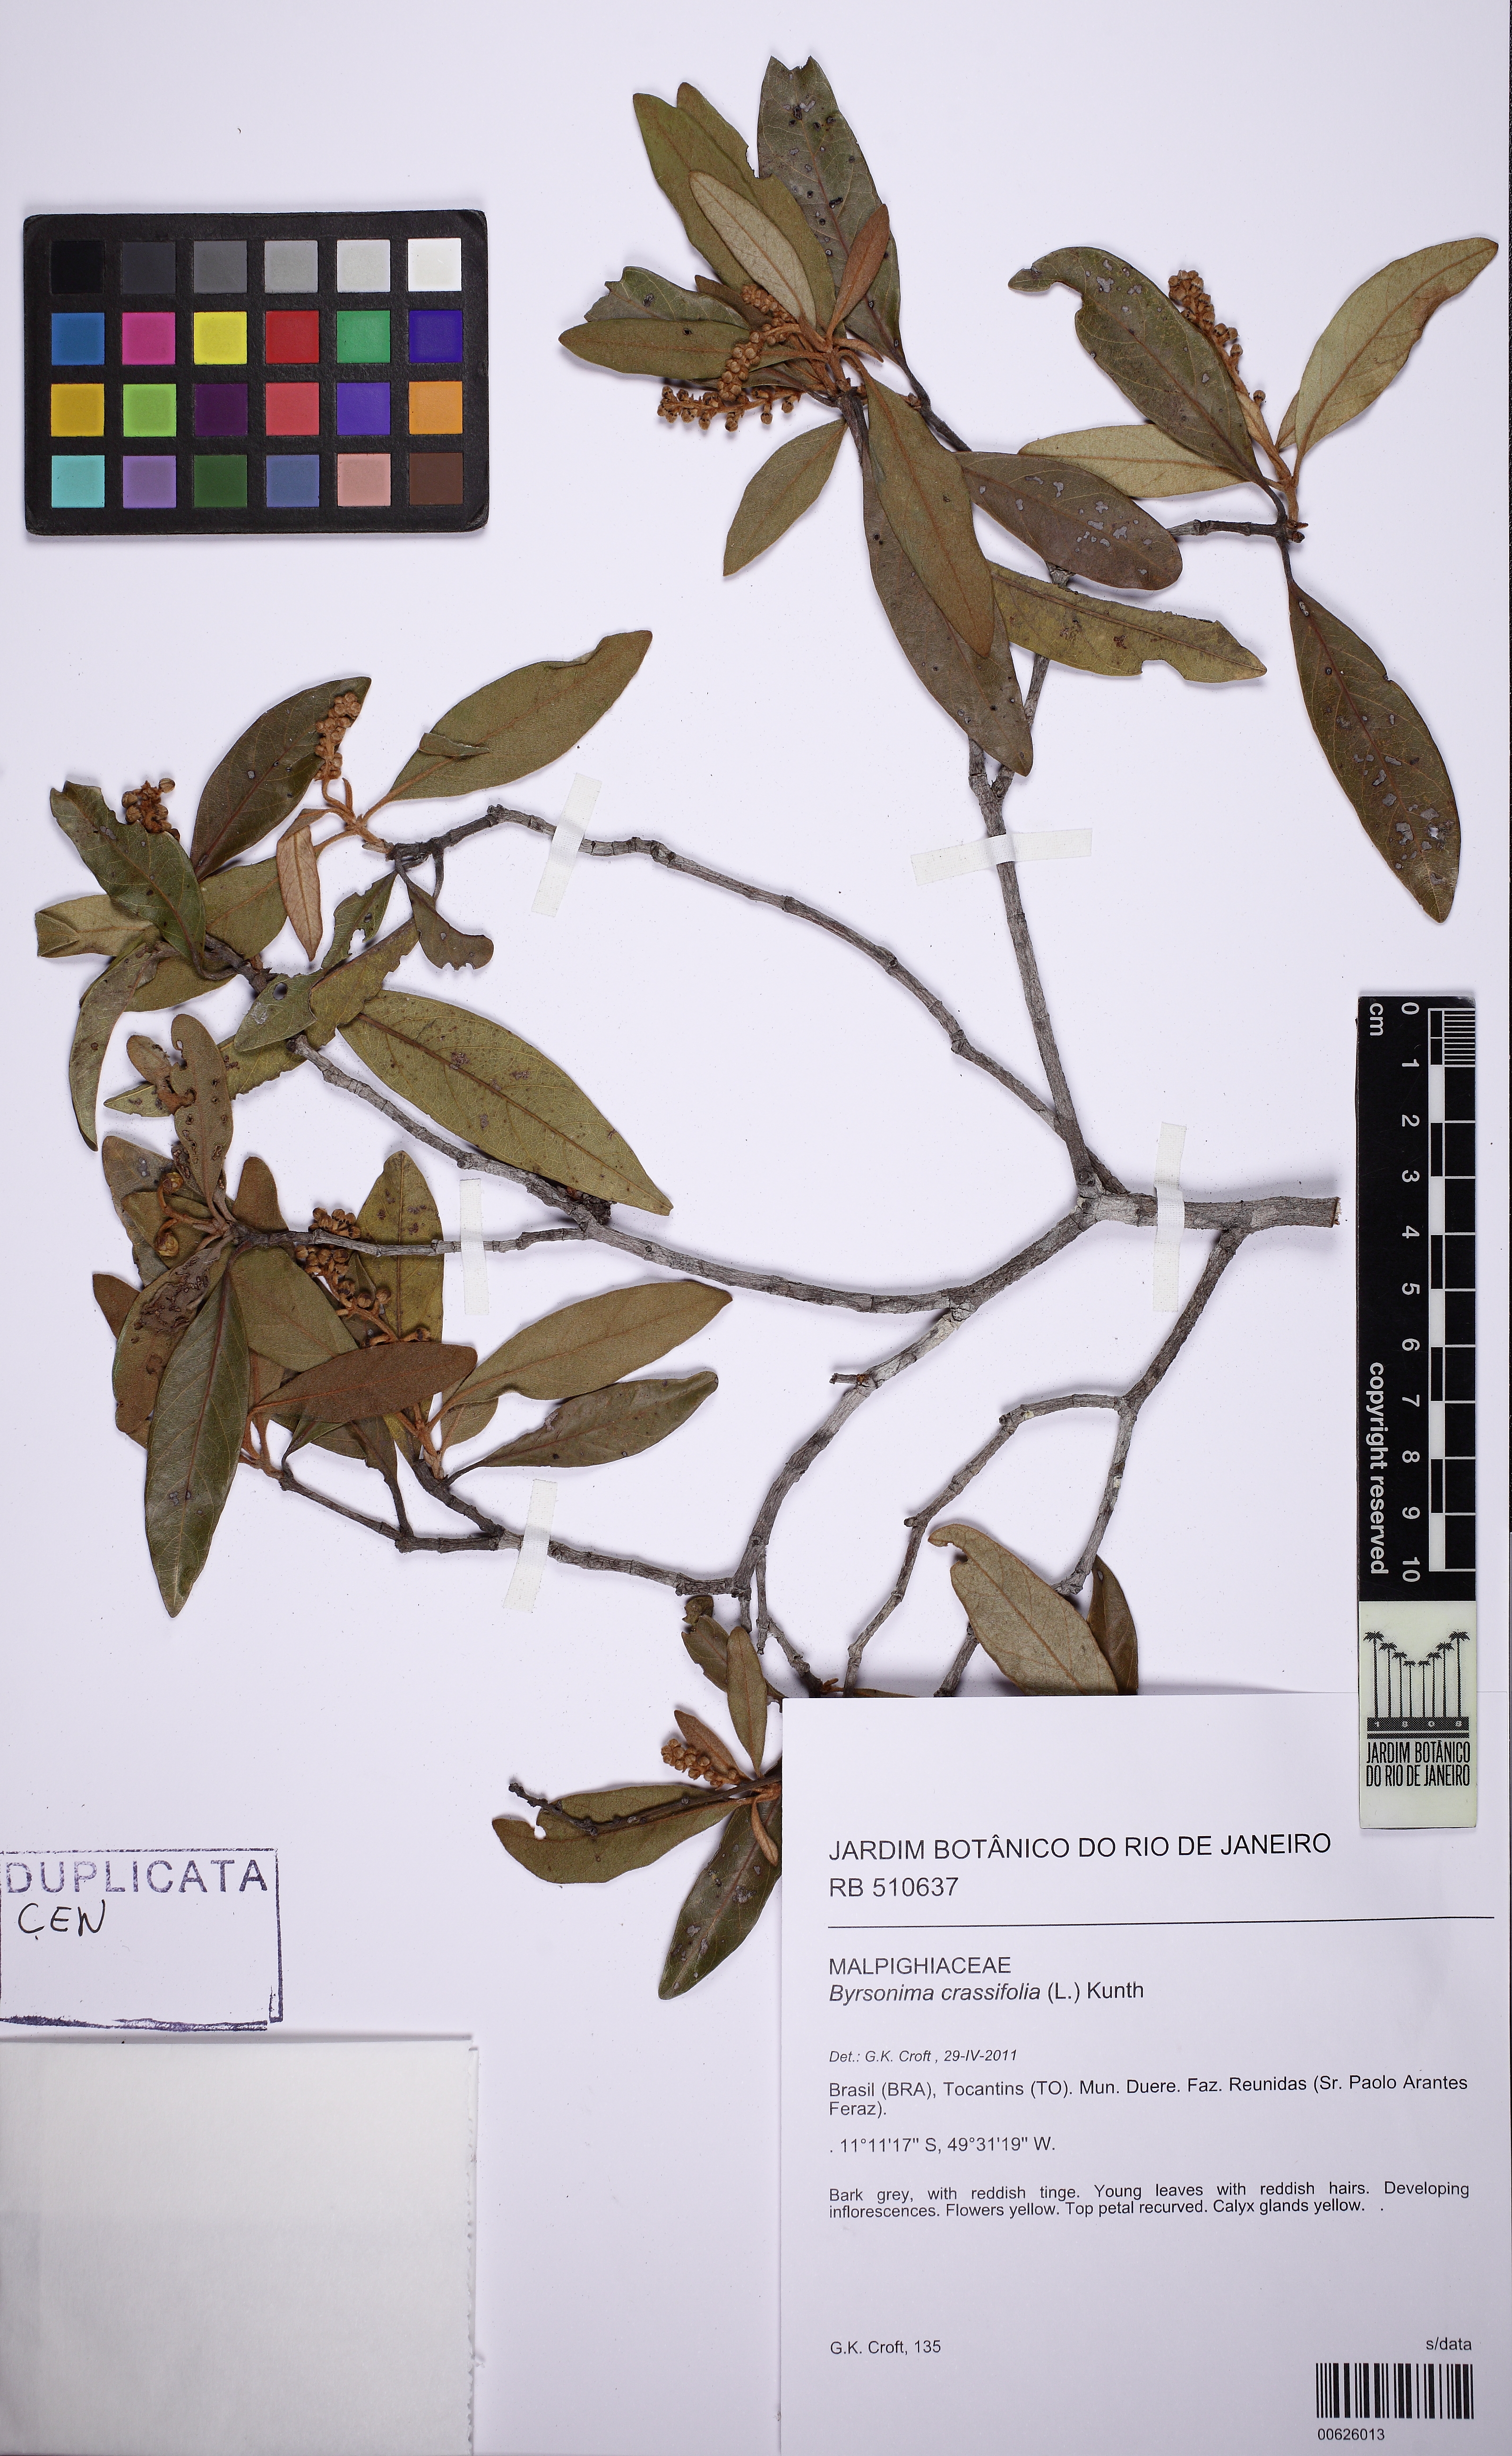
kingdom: Plantae
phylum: Tracheophyta
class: Magnoliopsida
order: Malpighiales
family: Malpighiaceae
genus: Byrsonima
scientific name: Byrsonima crassifolia
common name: Golden spoon
